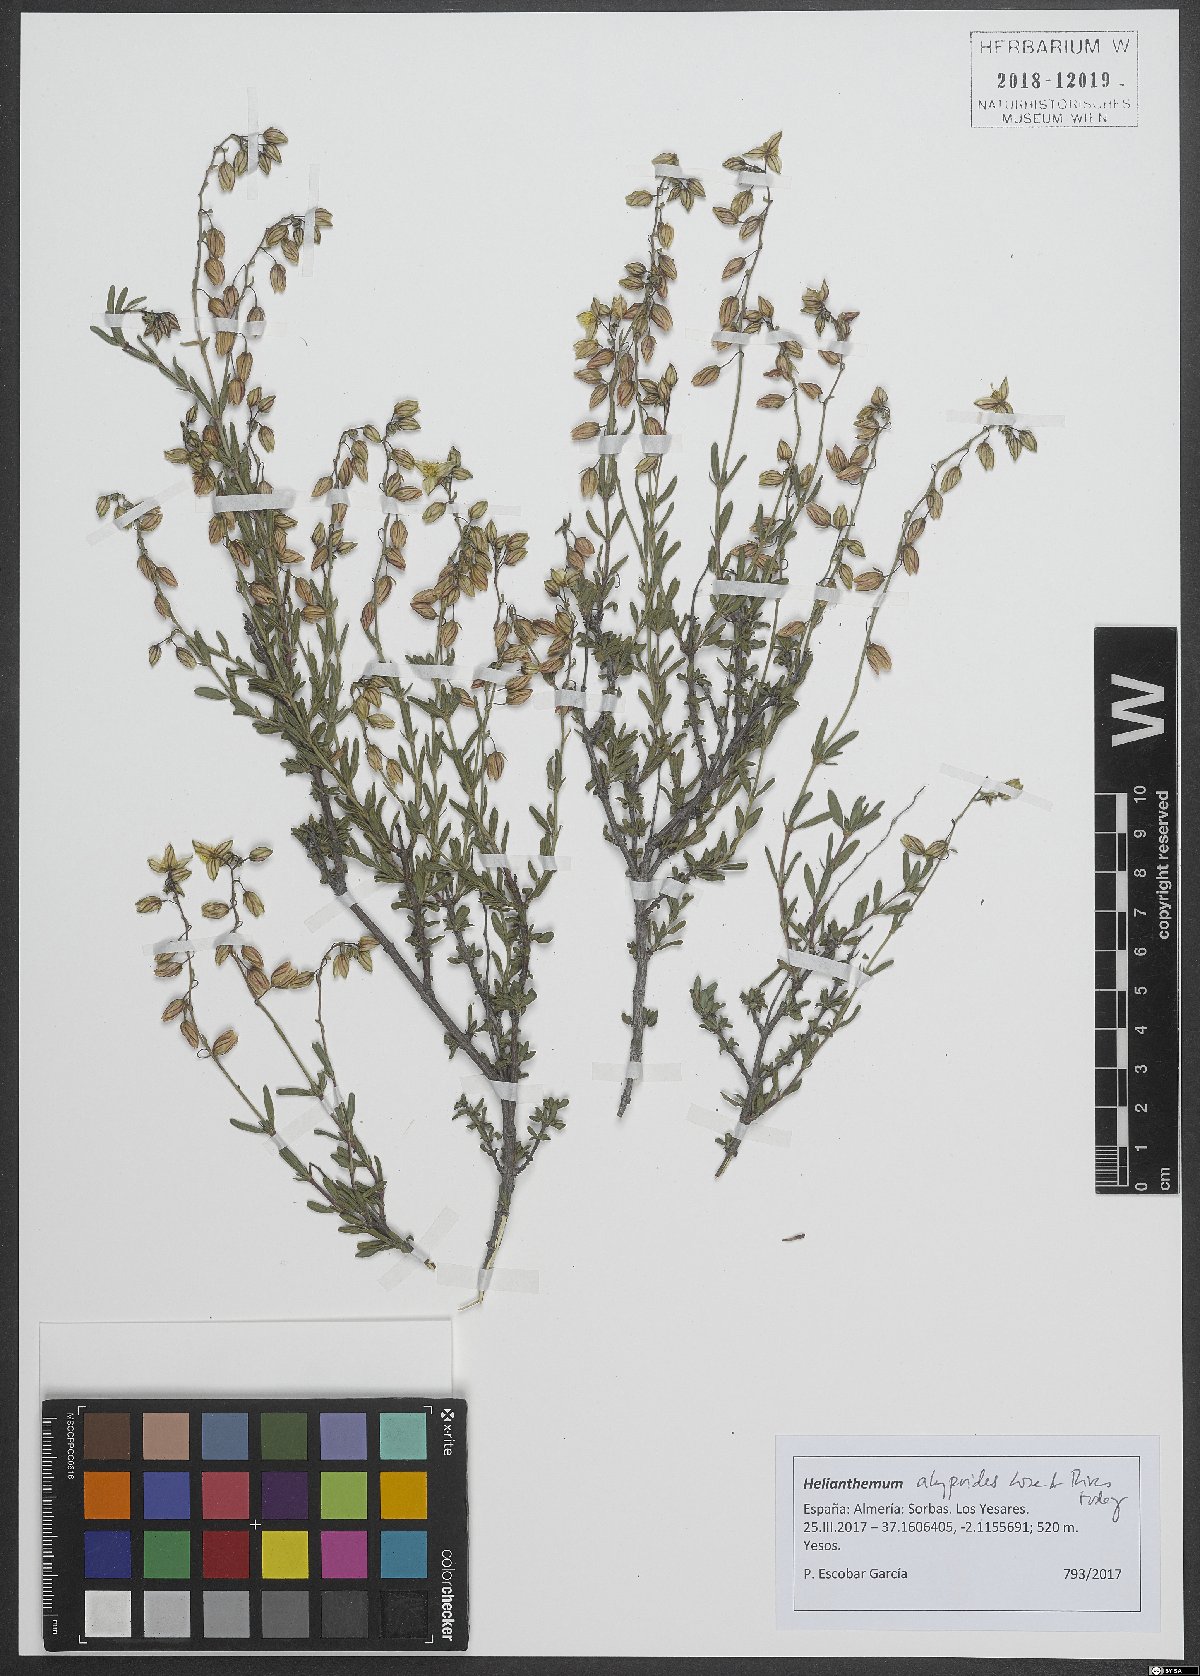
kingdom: Plantae
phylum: Tracheophyta
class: Magnoliopsida
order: Malvales
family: Cistaceae
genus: Helianthemum
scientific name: Helianthemum alypoides
